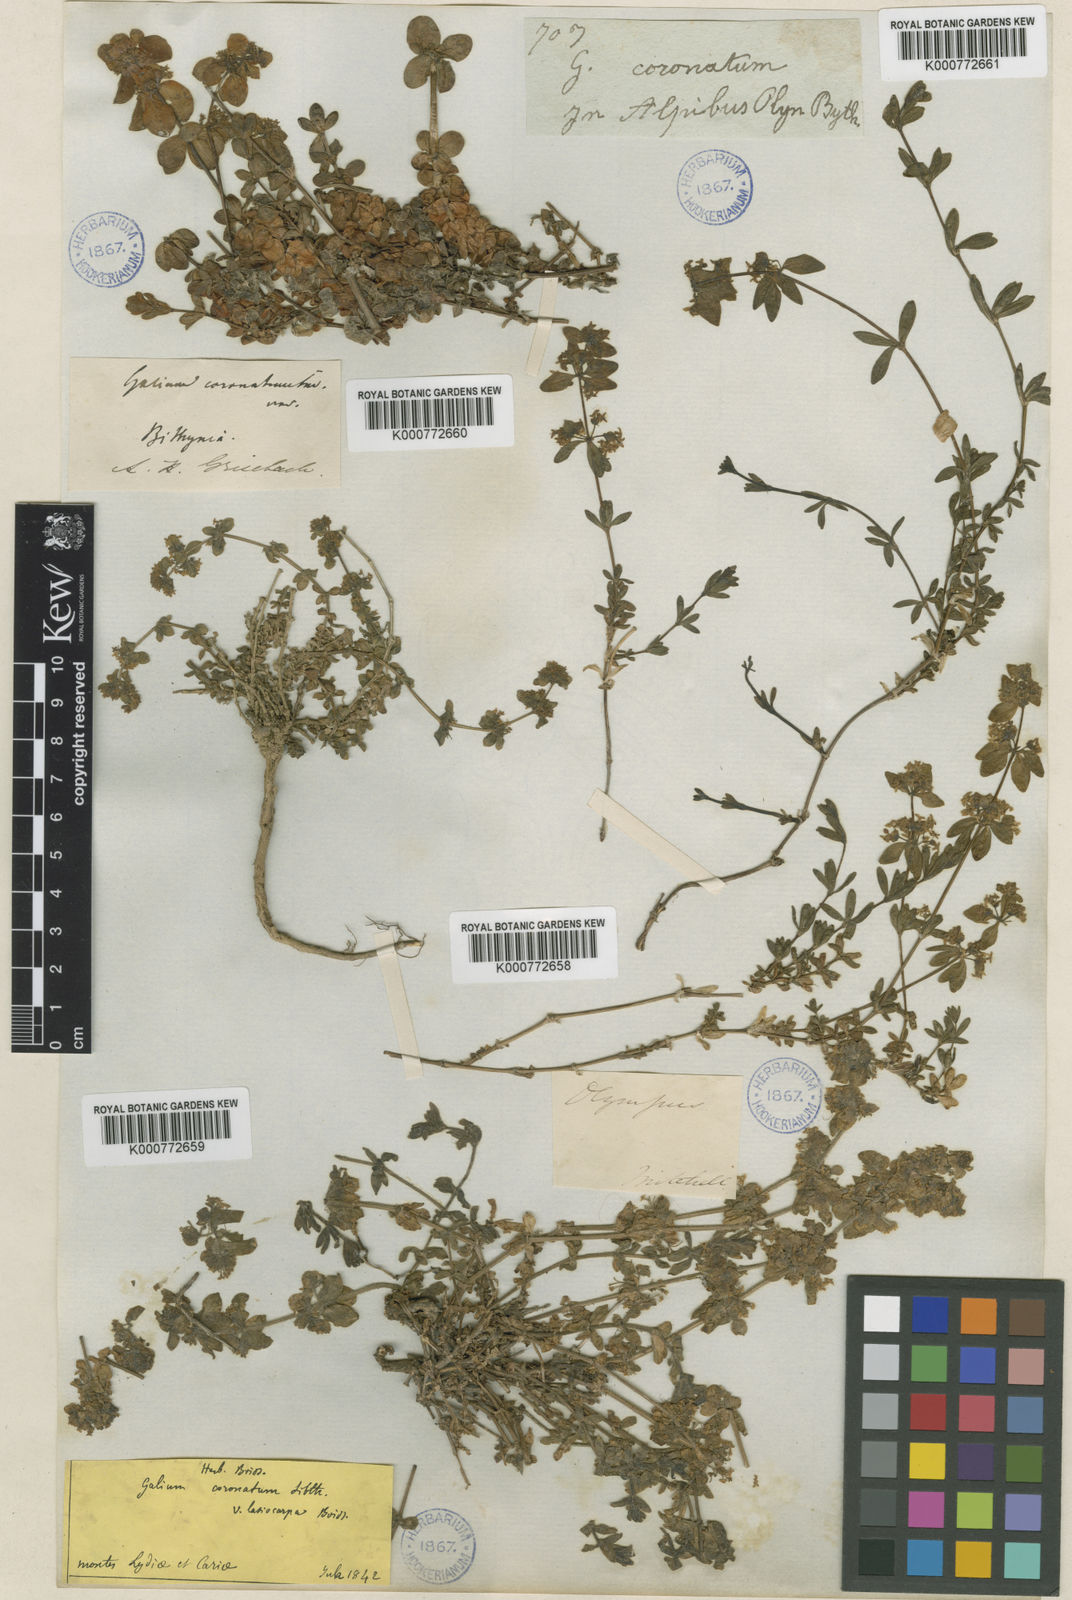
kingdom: Plantae
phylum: Tracheophyta
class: Magnoliopsida
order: Gentianales
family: Rubiaceae
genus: Cruciata
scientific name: Cruciata taurica
